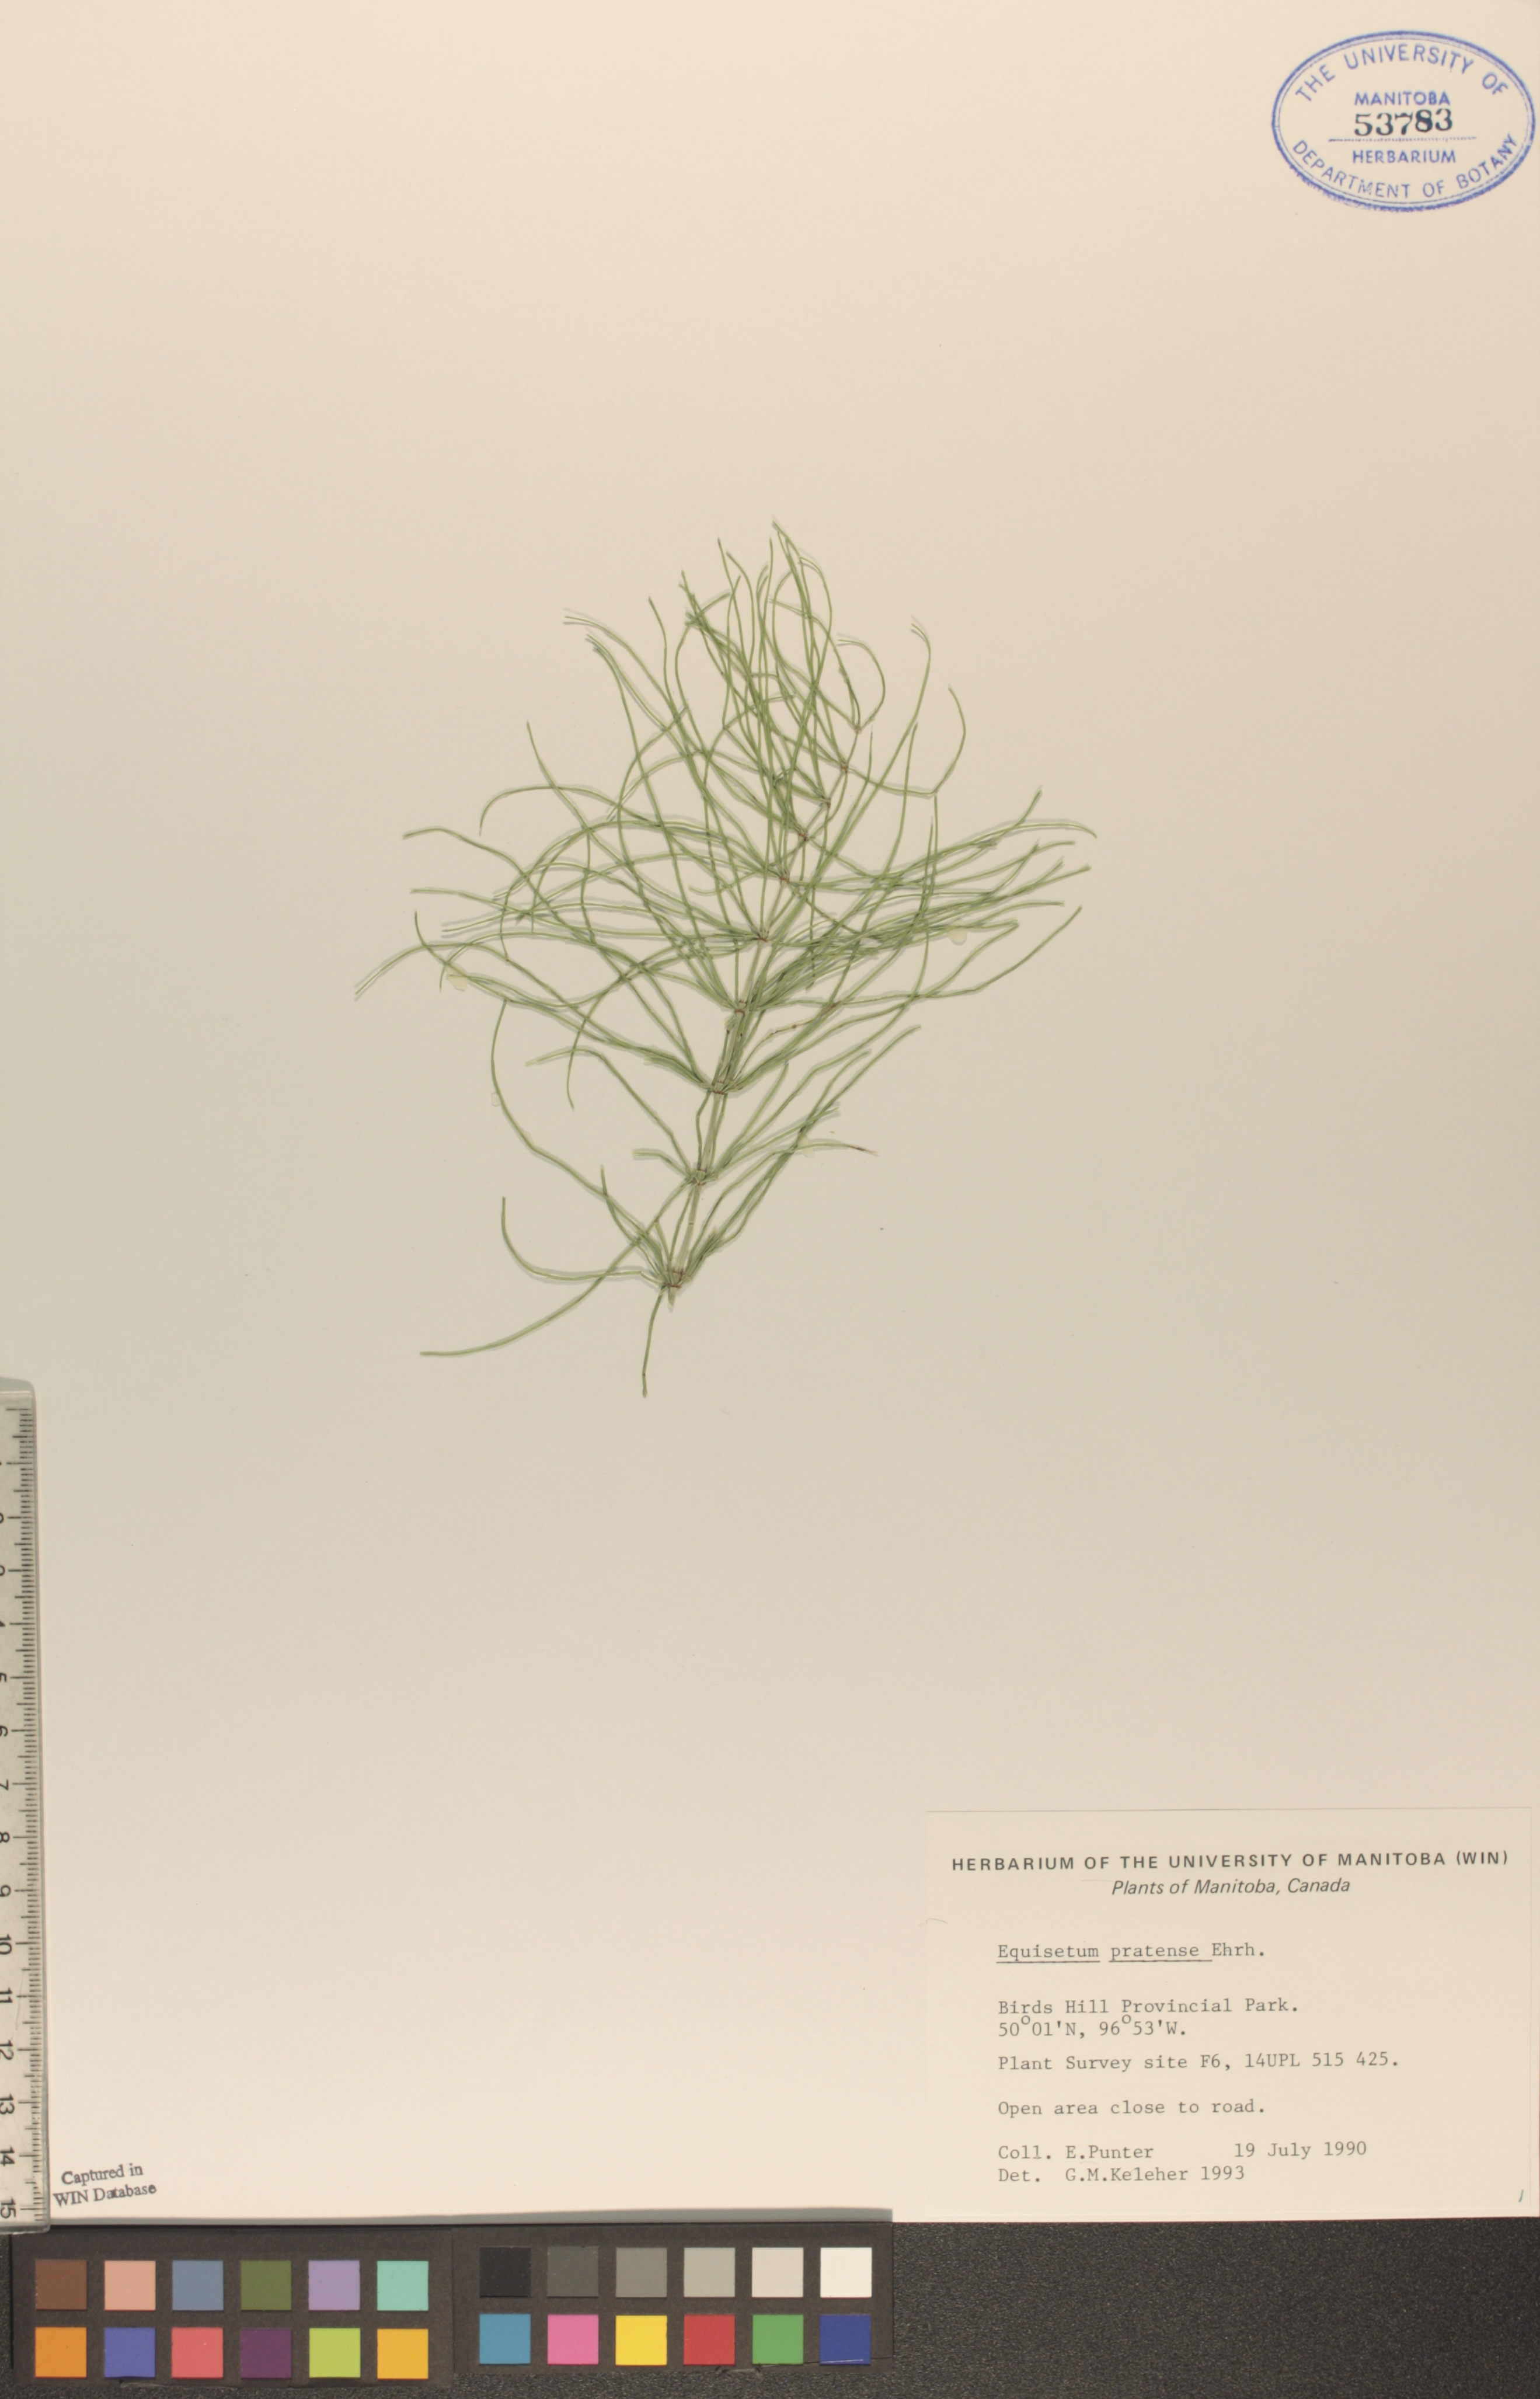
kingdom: Plantae
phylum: Tracheophyta
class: Polypodiopsida
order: Equisetales
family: Equisetaceae
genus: Equisetum
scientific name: Equisetum pratense
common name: Meadow horsetail
